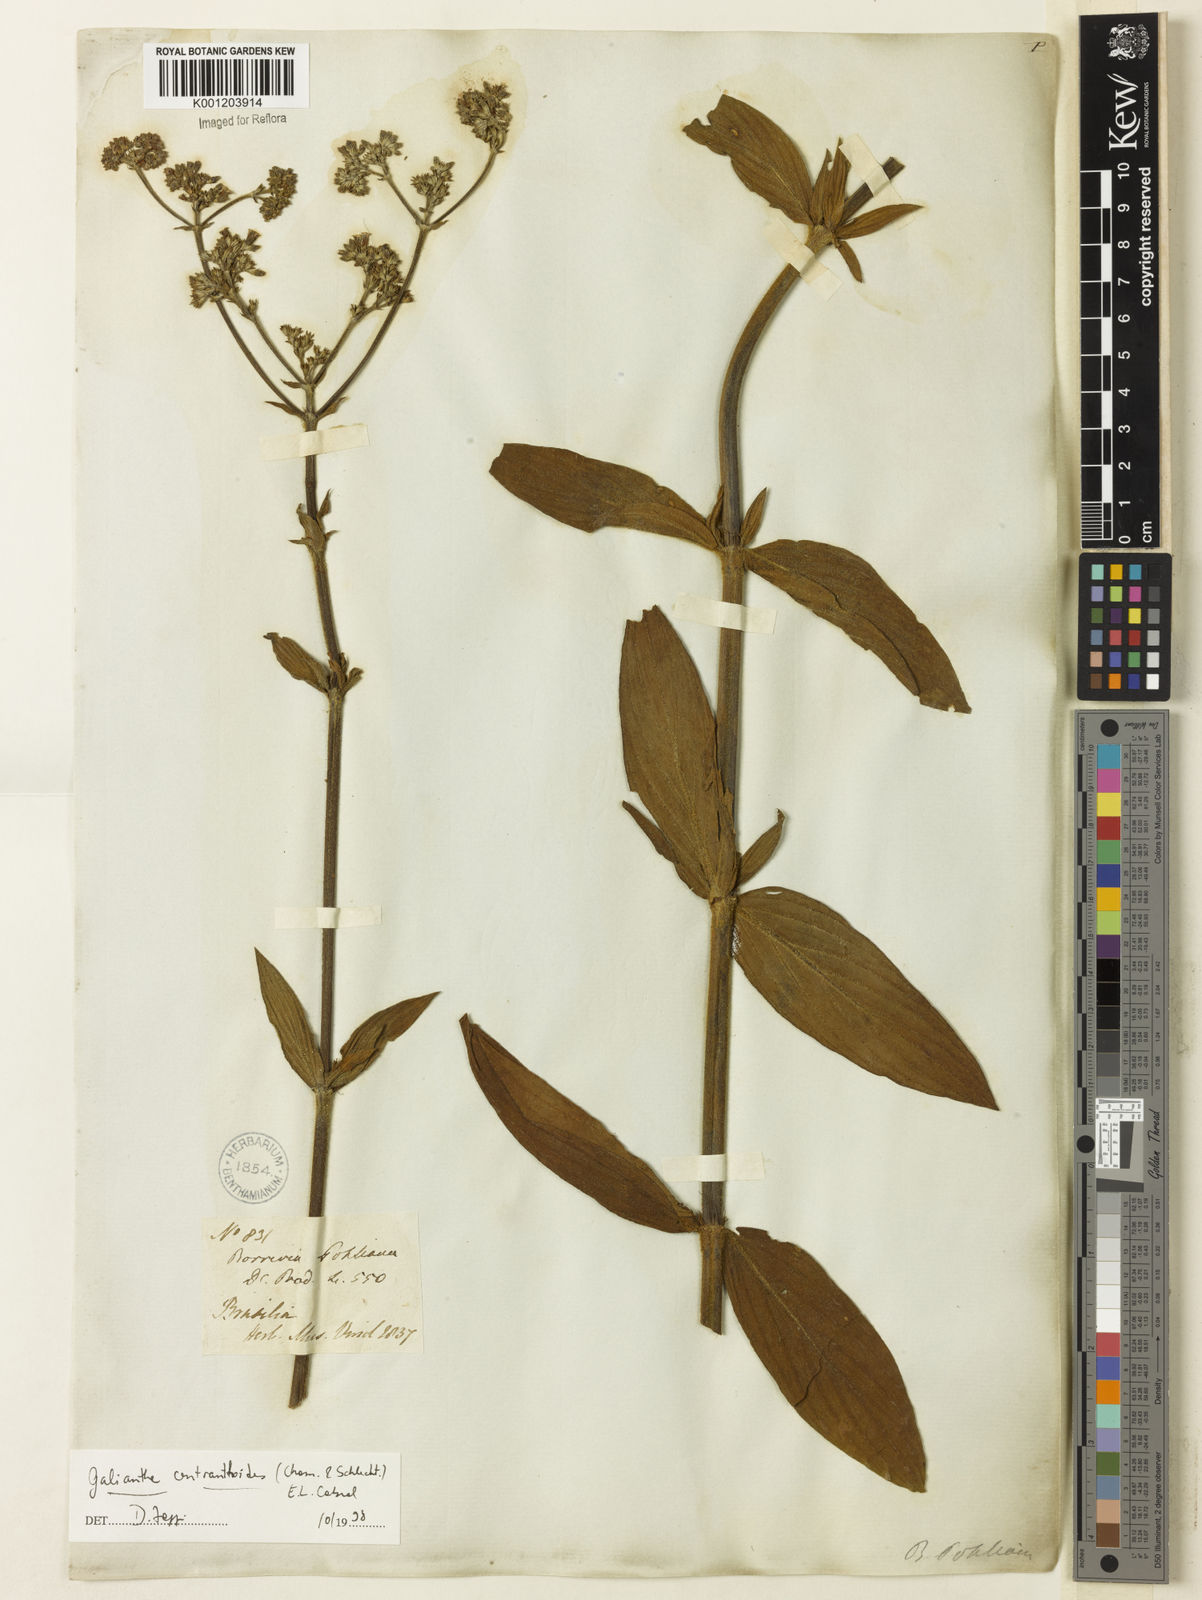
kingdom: Plantae
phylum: Tracheophyta
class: Magnoliopsida
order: Gentianales
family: Rubiaceae
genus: Galianthe
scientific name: Galianthe centranthoides
